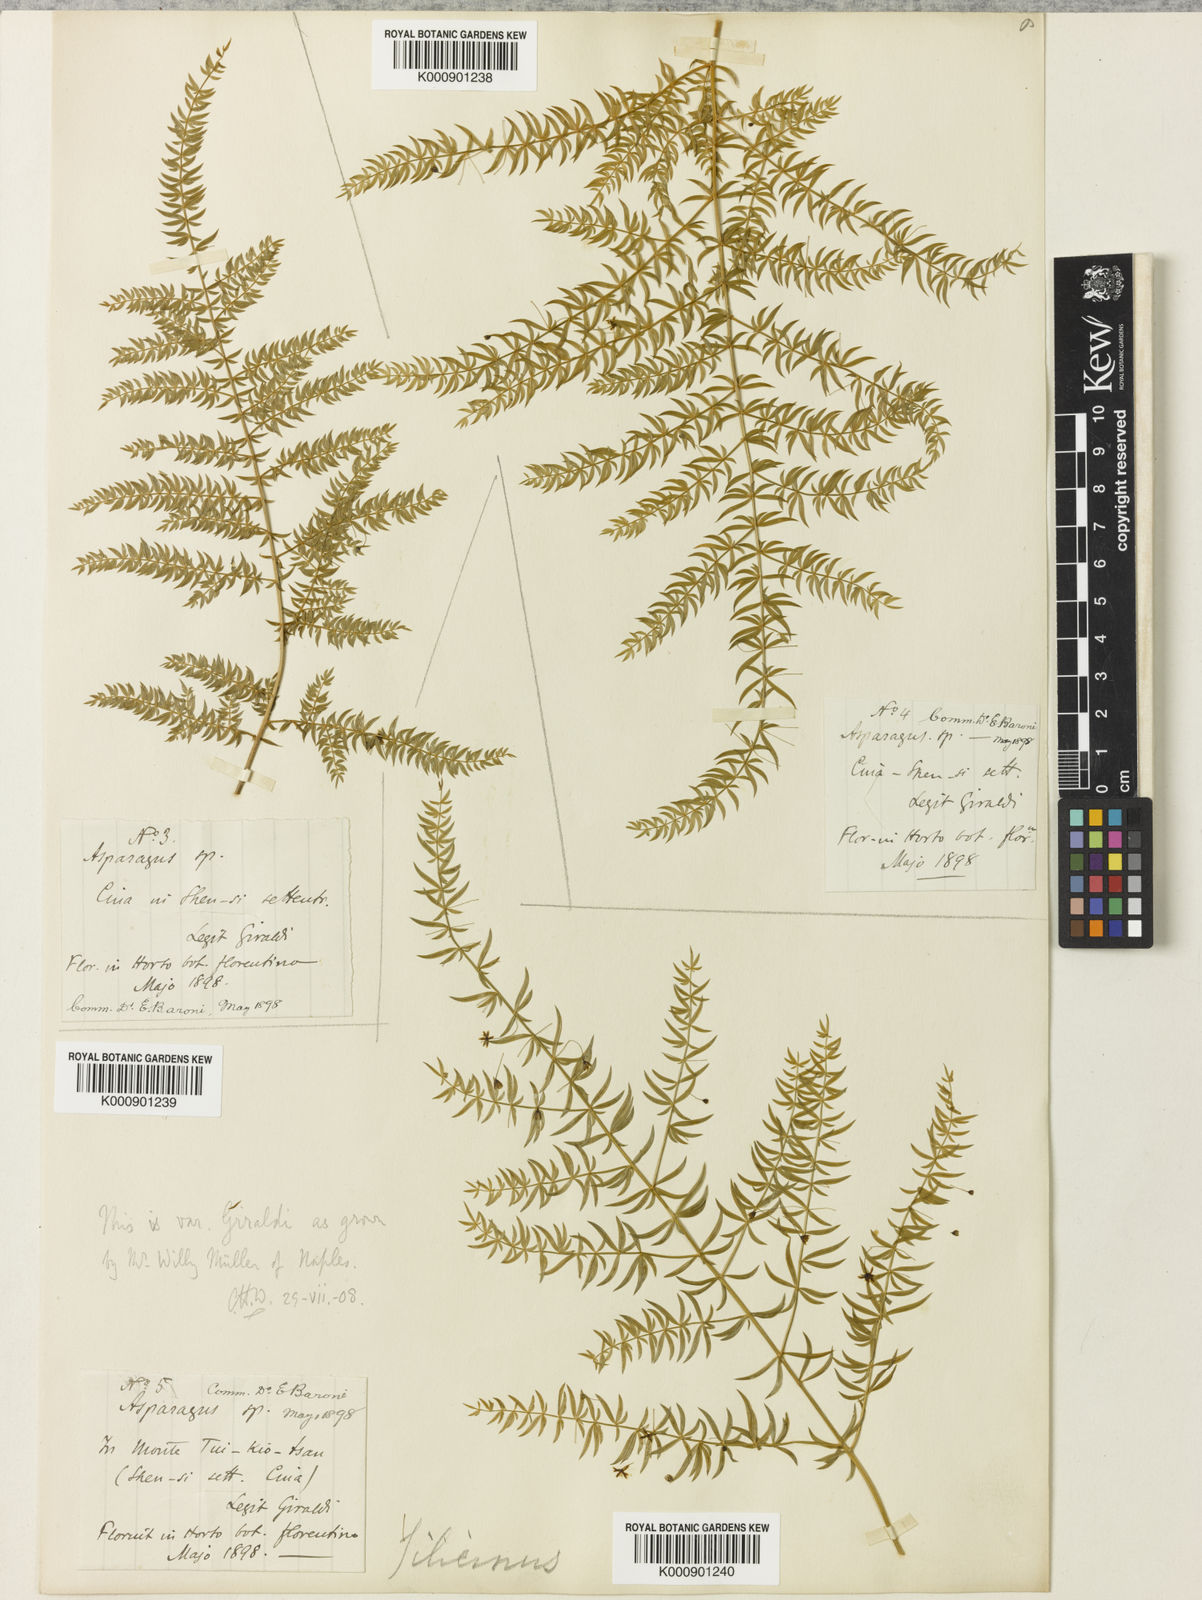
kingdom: Plantae
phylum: Tracheophyta
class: Liliopsida
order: Asparagales
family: Asparagaceae
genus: Asparagus
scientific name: Asparagus filicinus
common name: Fern asparagus
